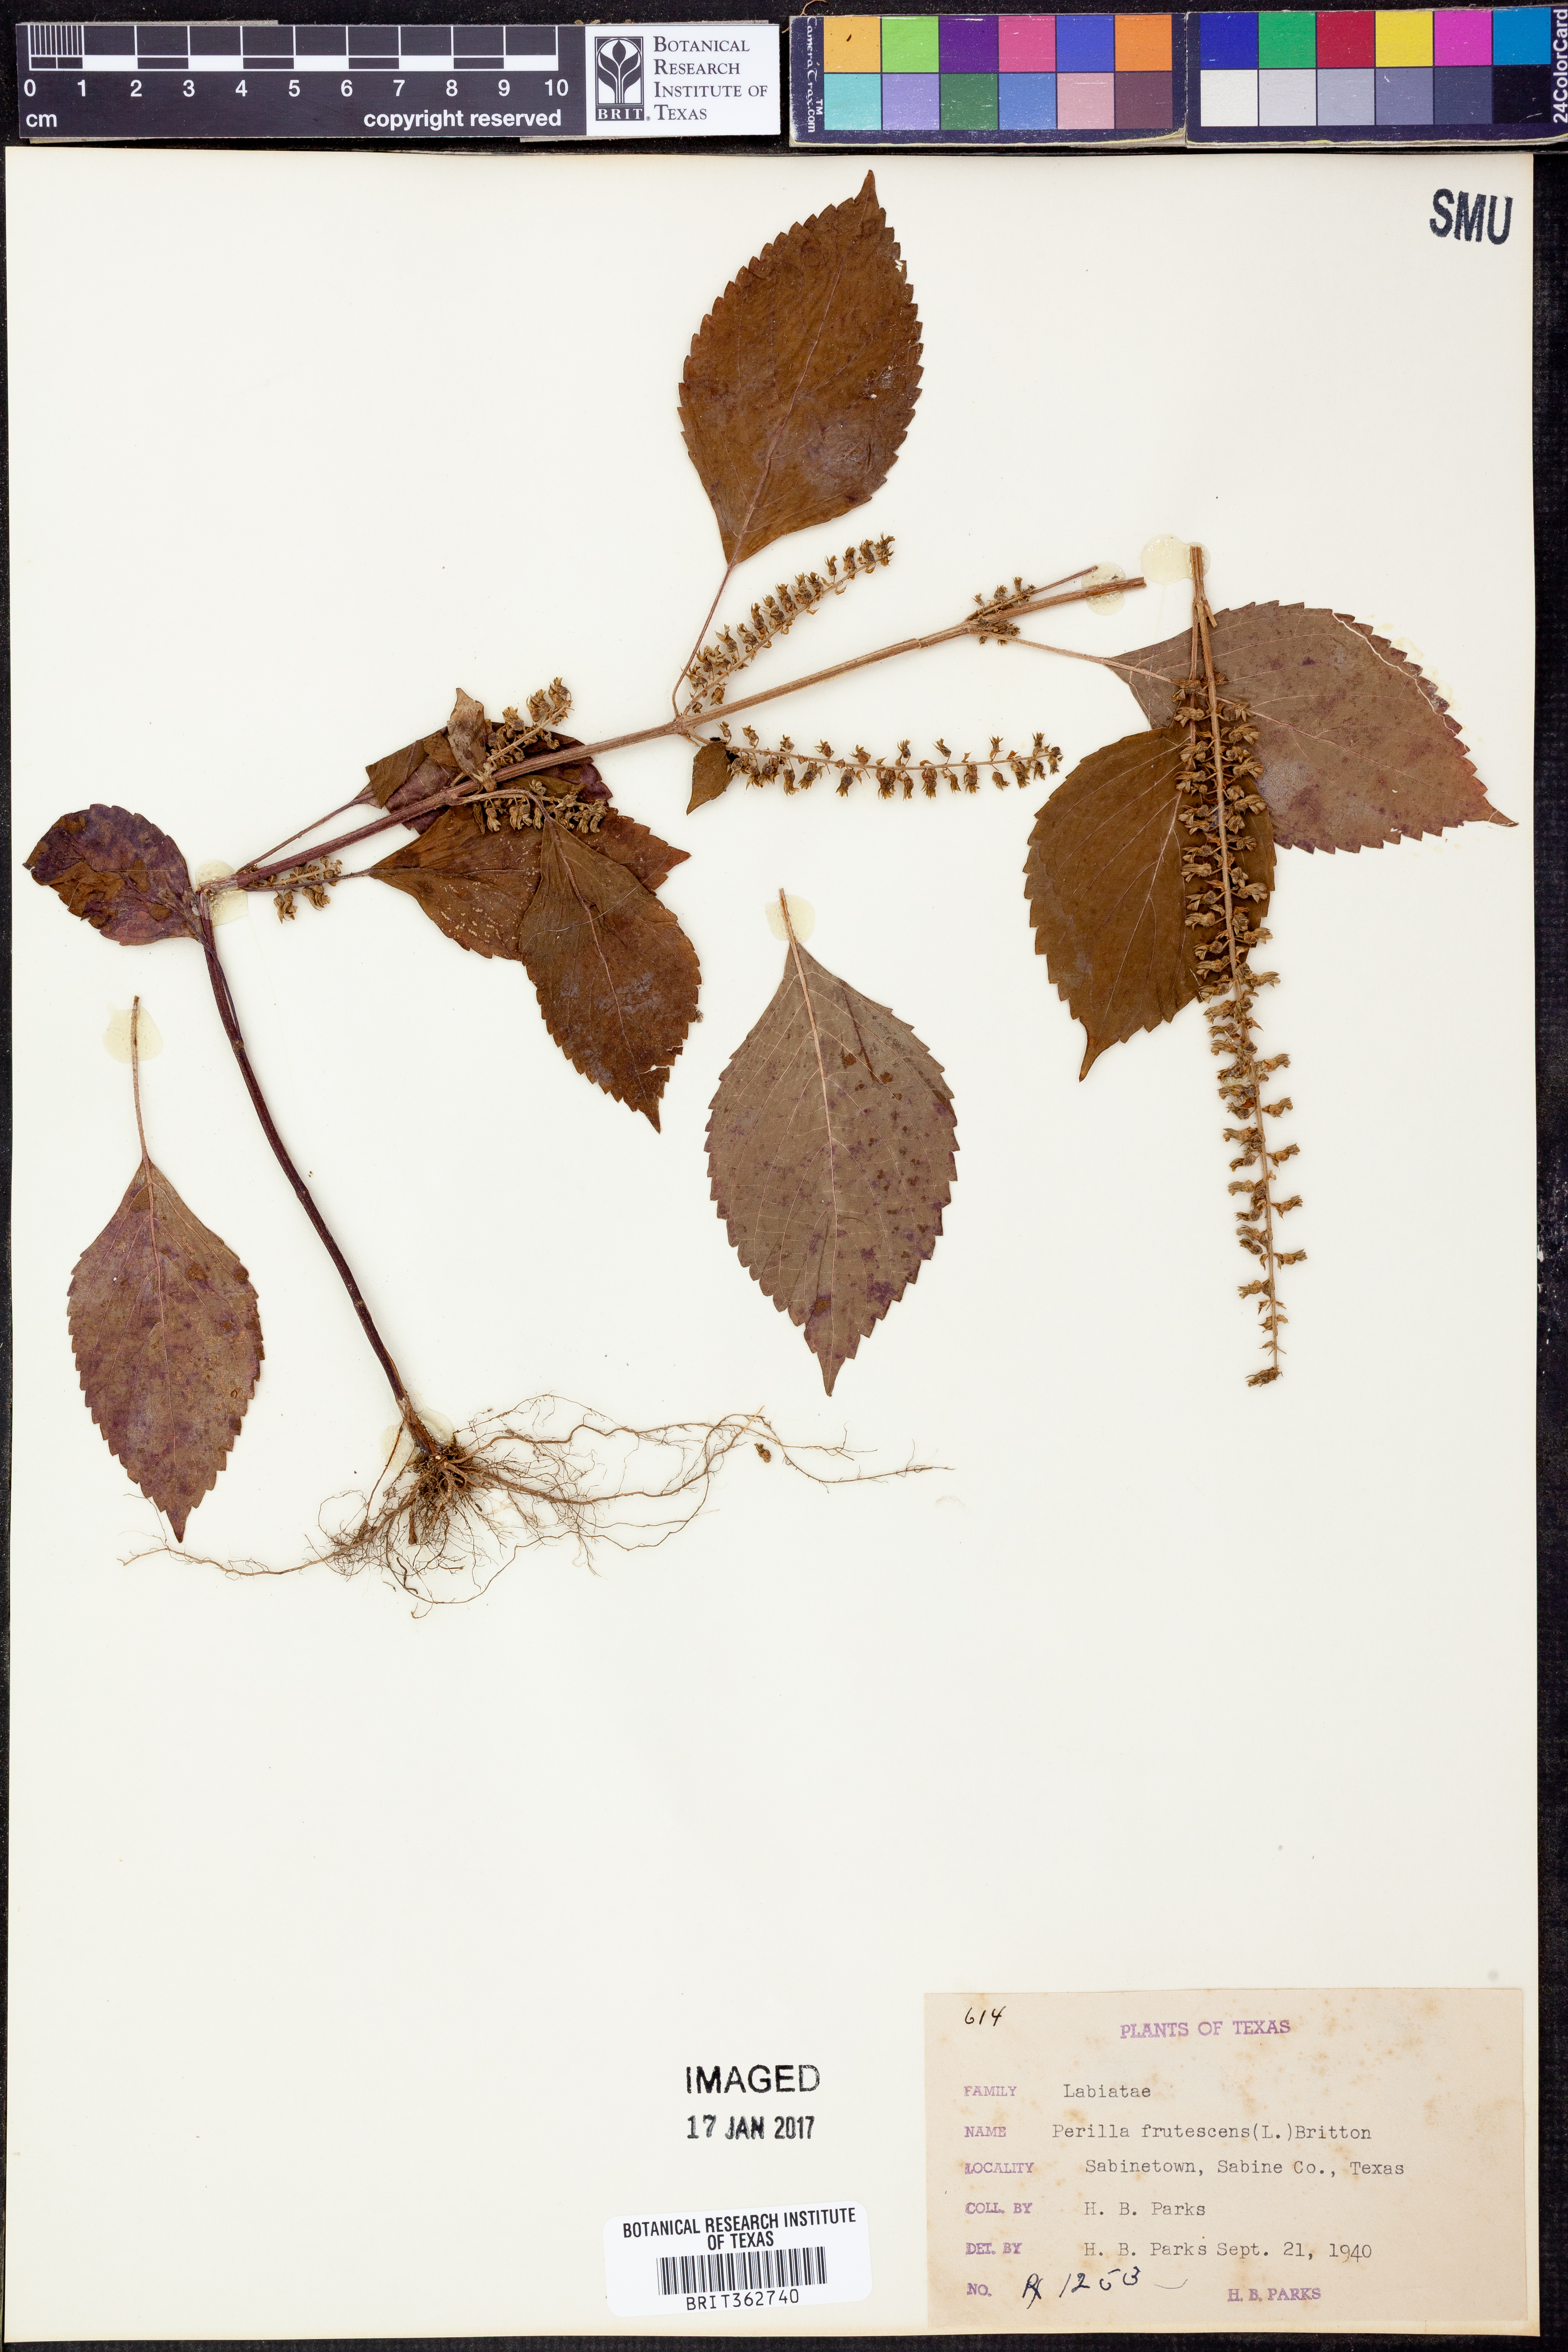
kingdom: Plantae
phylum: Tracheophyta
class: Magnoliopsida
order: Lamiales
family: Lamiaceae
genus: Perilla
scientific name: Perilla frutescens
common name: Perilla
